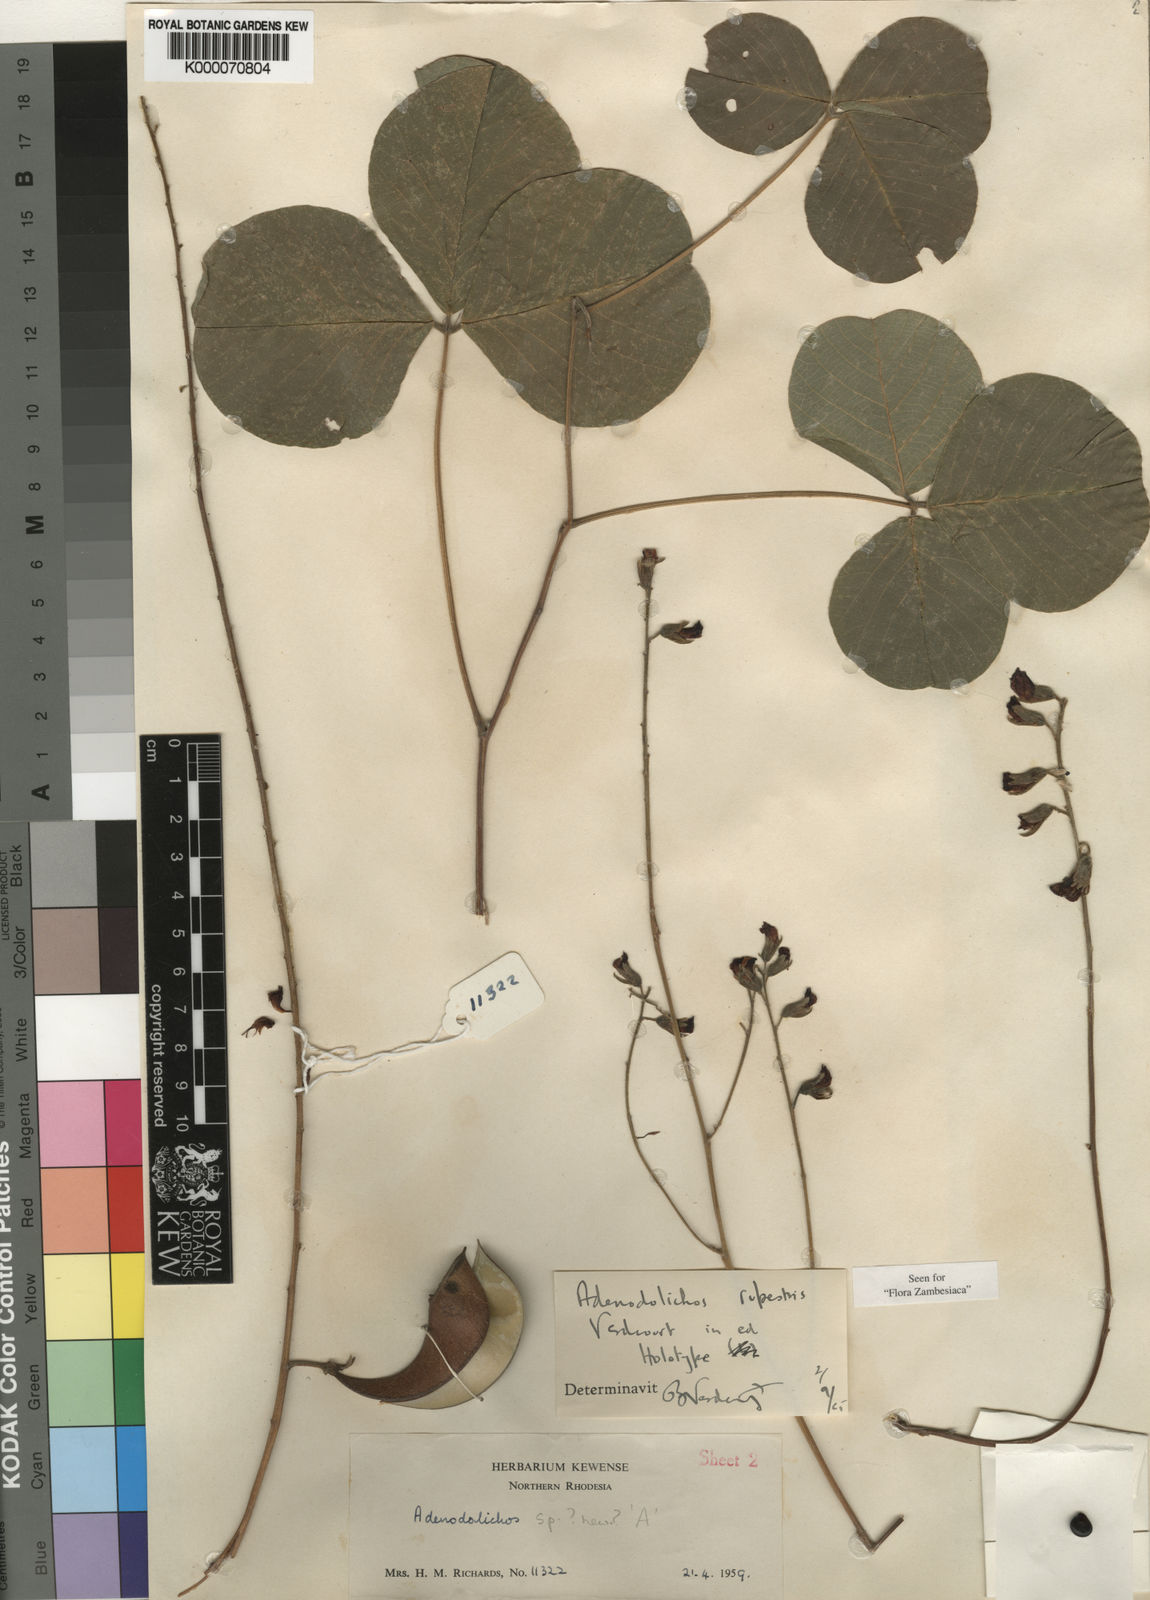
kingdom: Plantae
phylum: Tracheophyta
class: Magnoliopsida
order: Fabales
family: Fabaceae
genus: Adenodolichos
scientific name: Adenodolichos rupestris
